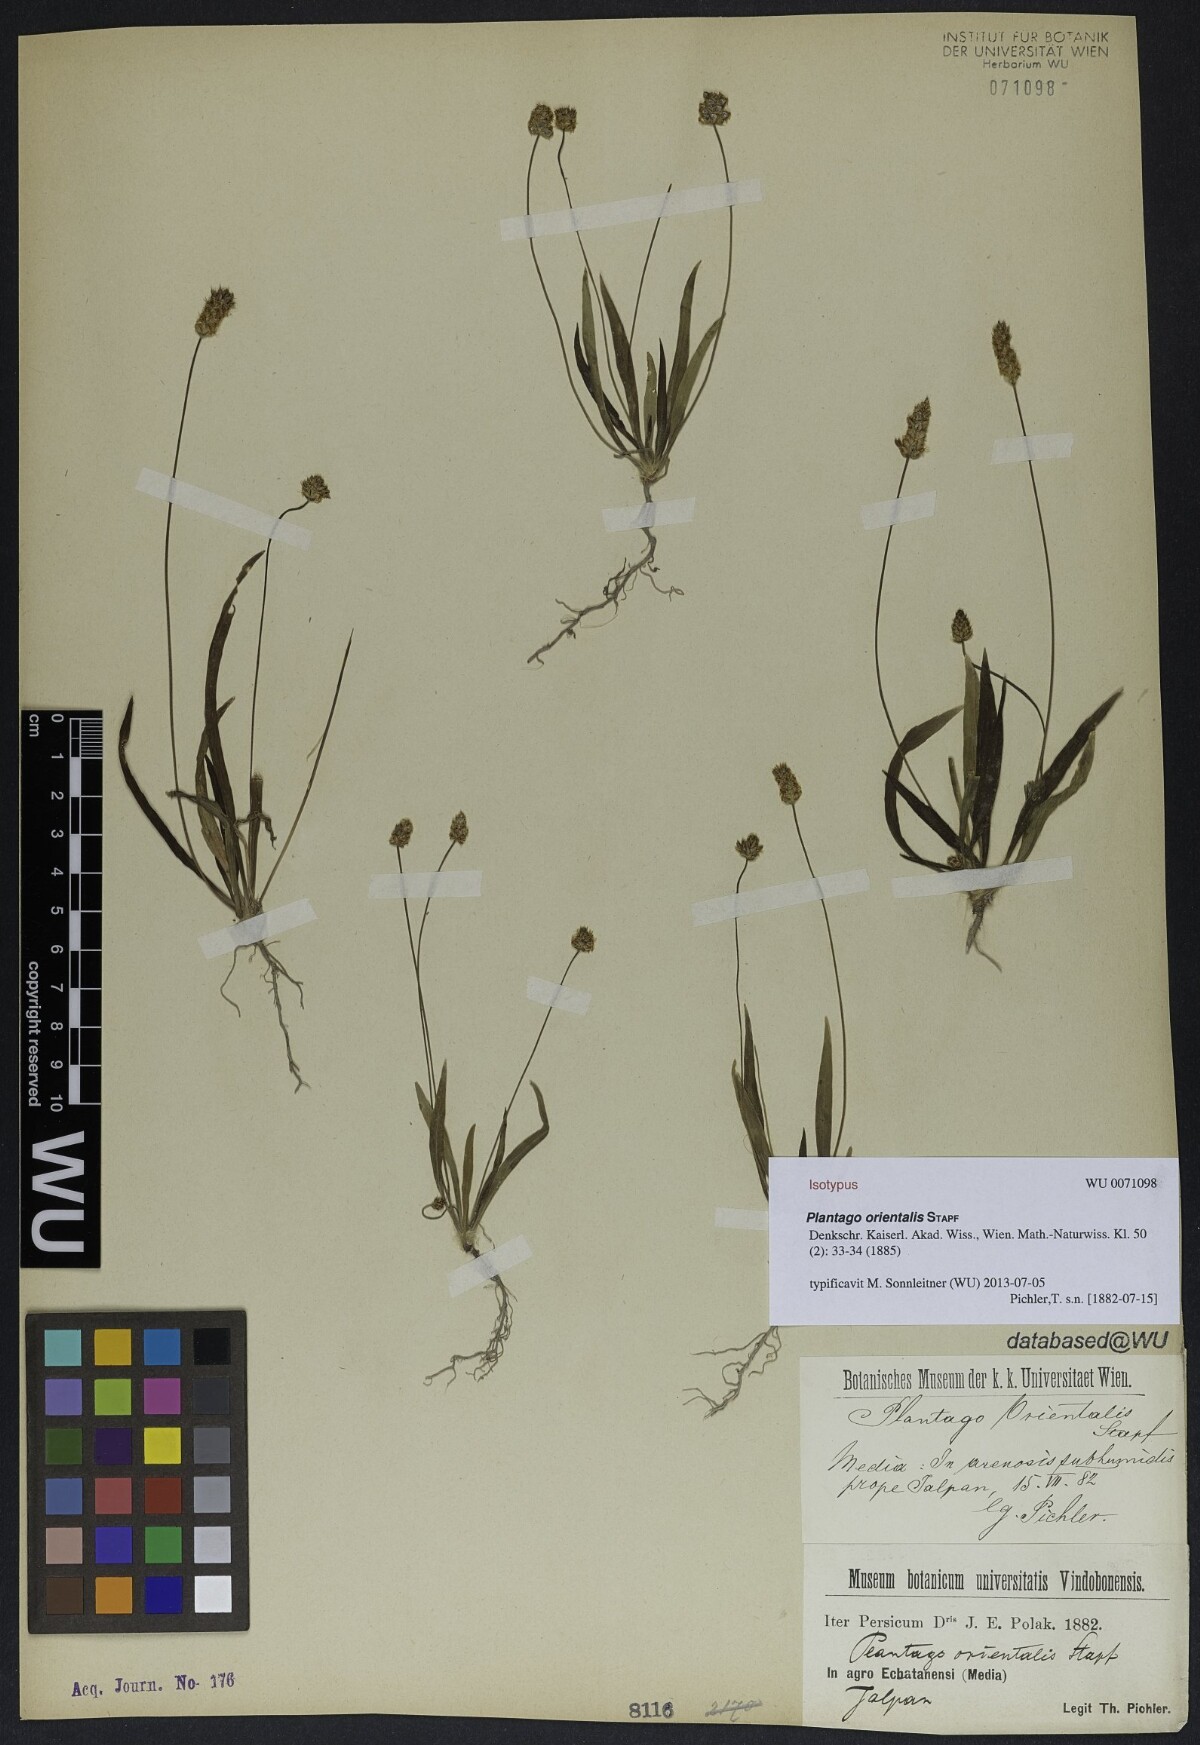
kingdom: Plantae
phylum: Tracheophyta
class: Magnoliopsida
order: Lamiales
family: Plantaginaceae
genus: Plantago
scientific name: Plantago lanceolata
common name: Ribwort plantain
